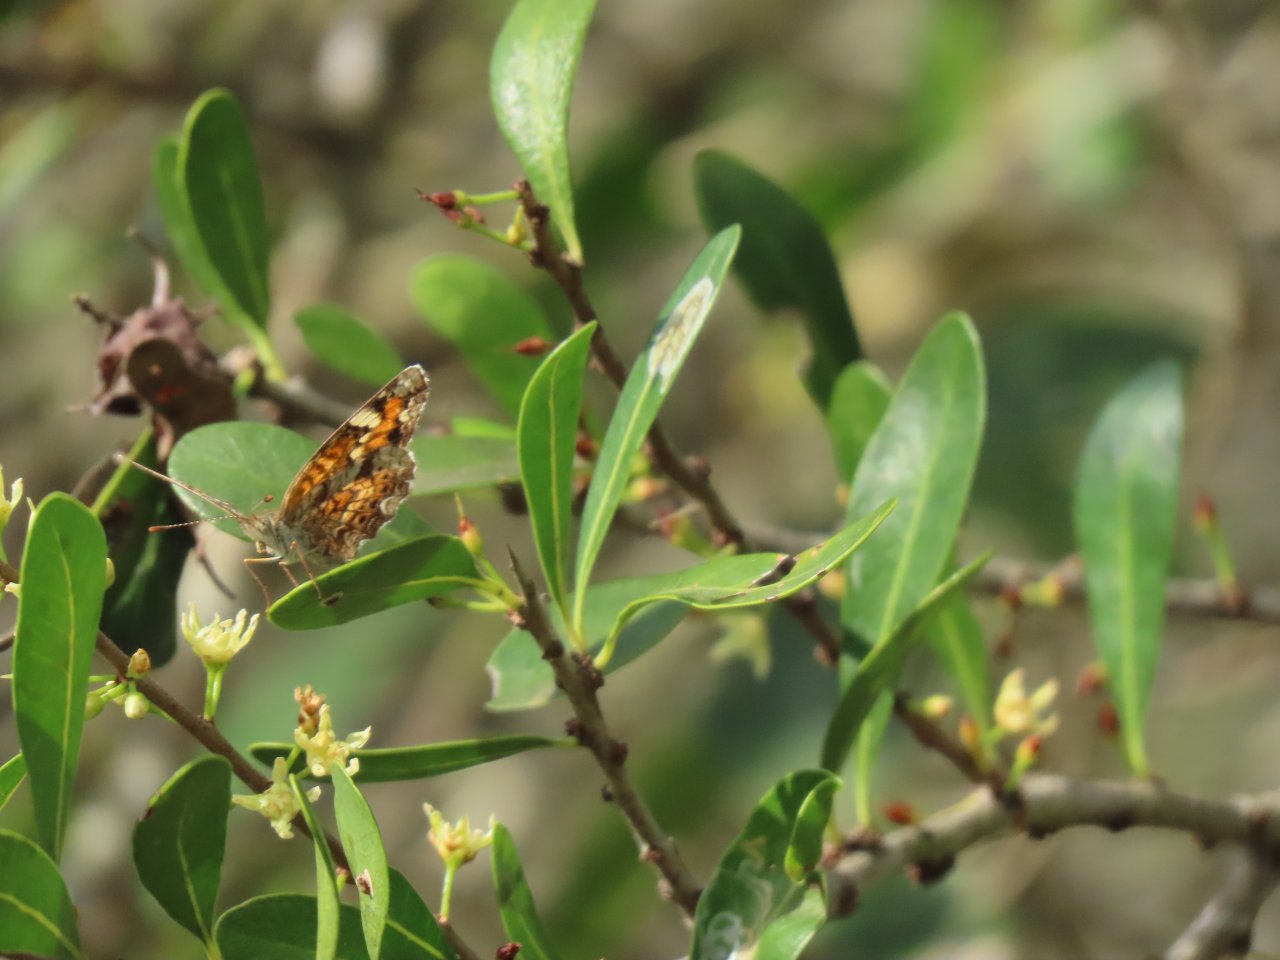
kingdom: Animalia
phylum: Arthropoda
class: Insecta
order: Lepidoptera
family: Nymphalidae
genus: Phyciodes
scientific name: Phyciodes phaon
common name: Phaon Crescent
